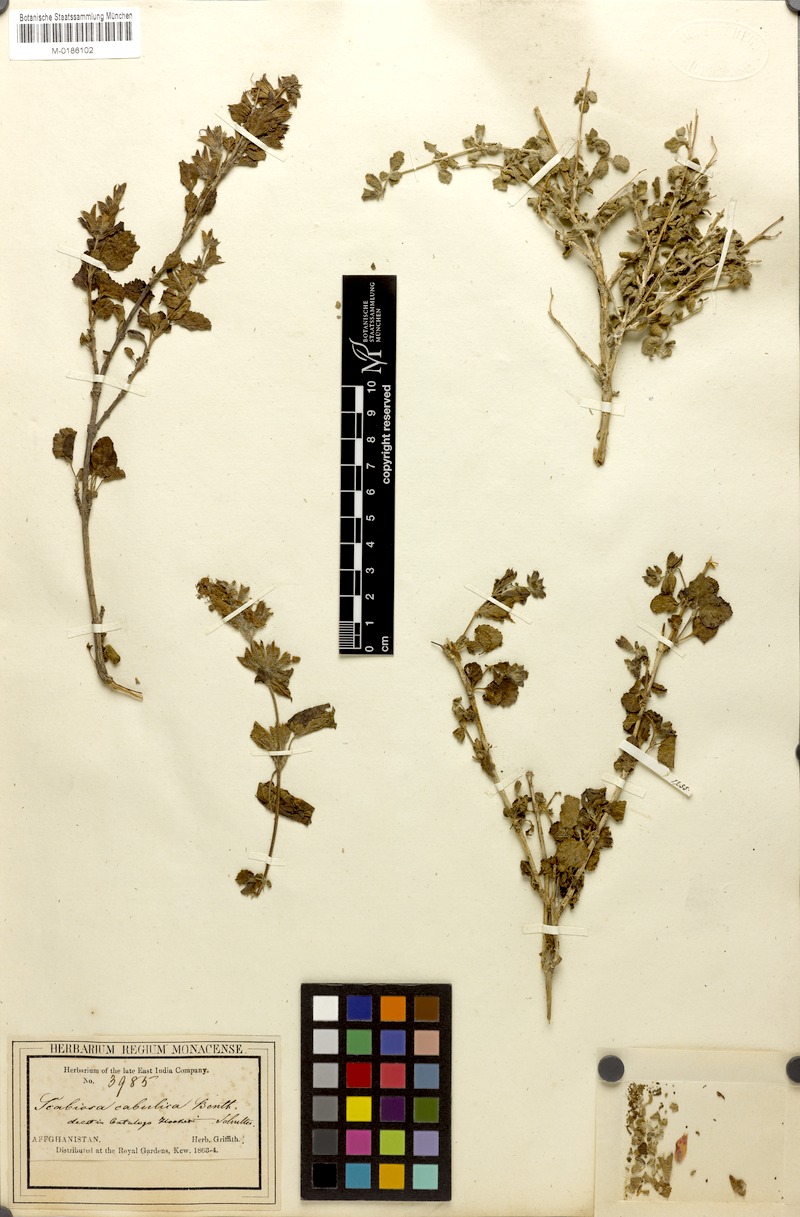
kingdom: Plantae
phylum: Tracheophyta
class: Magnoliopsida
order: Lamiales
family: Lamiaceae
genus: Salvia
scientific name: Salvia cabulica
